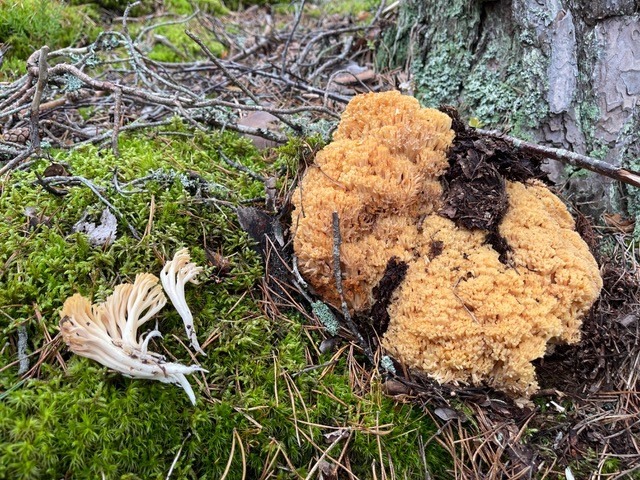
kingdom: Fungi
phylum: Basidiomycota
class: Agaricomycetes
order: Gomphales
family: Gomphaceae
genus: Ramaria
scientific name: Ramaria boreimaxima
